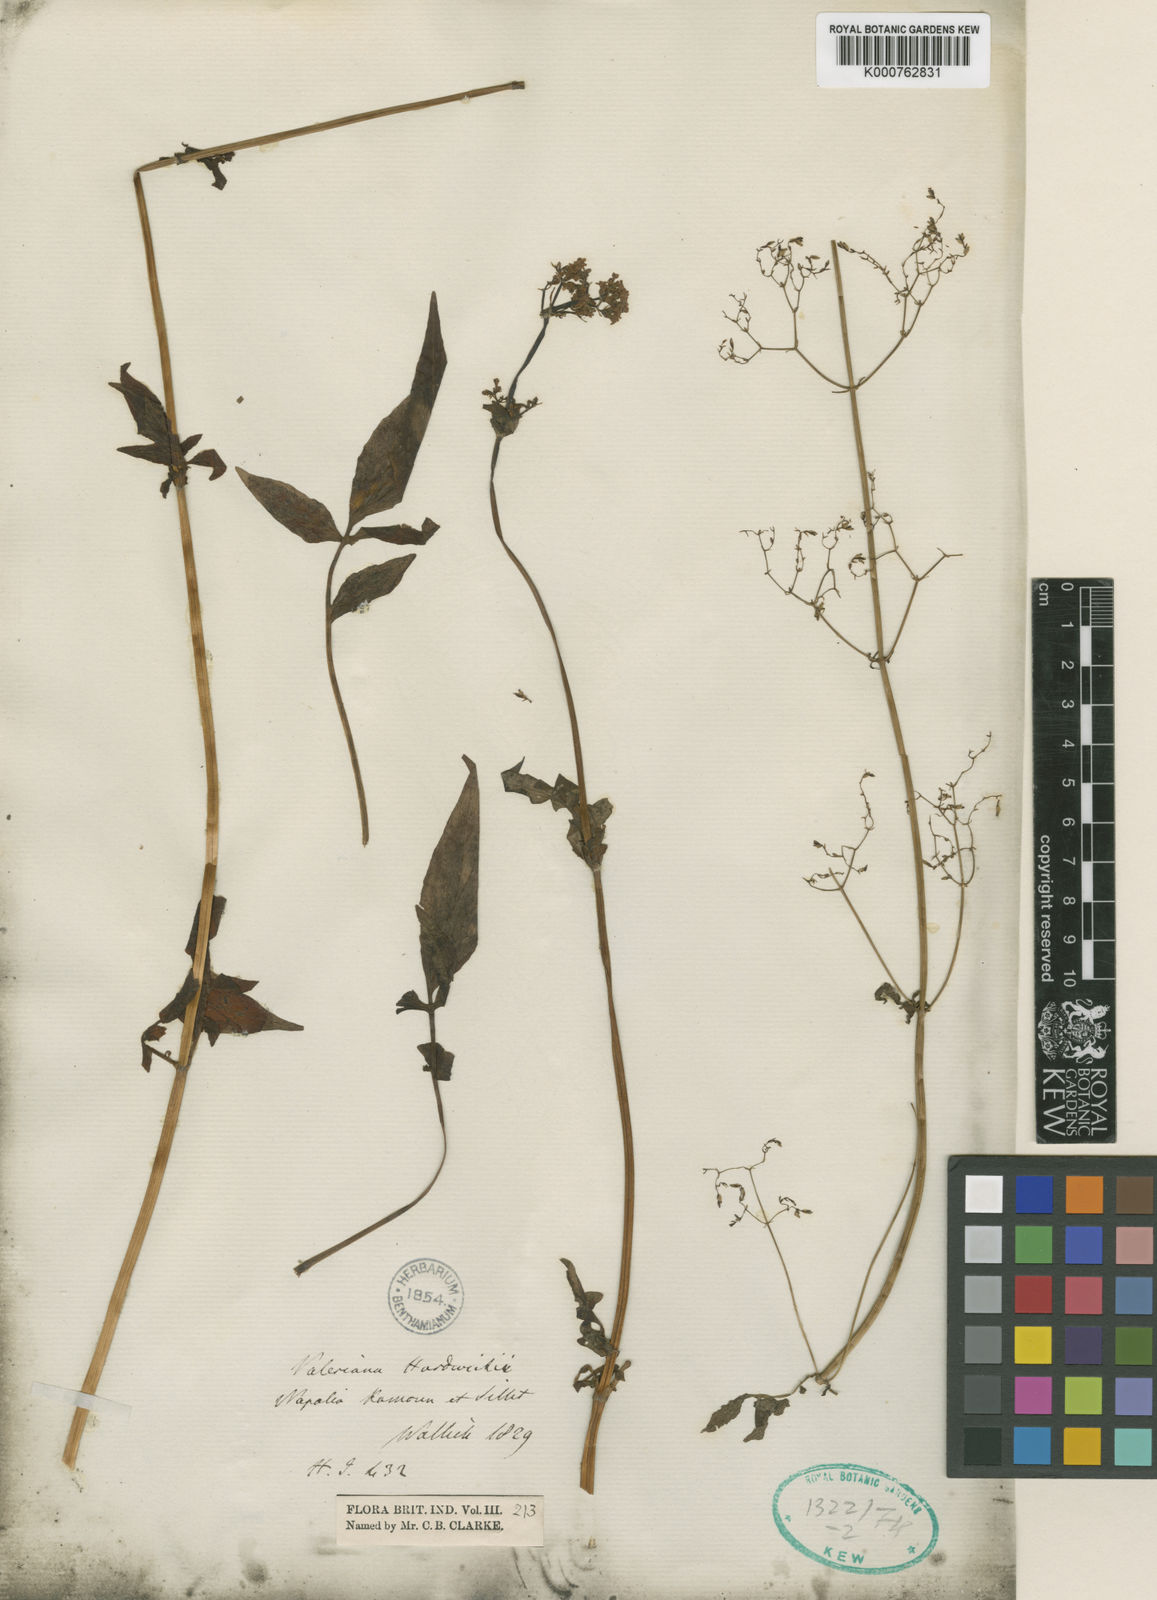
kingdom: Plantae
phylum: Tracheophyta
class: Magnoliopsida
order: Dipsacales
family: Caprifoliaceae
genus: Valeriana
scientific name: Valeriana hardwickei
